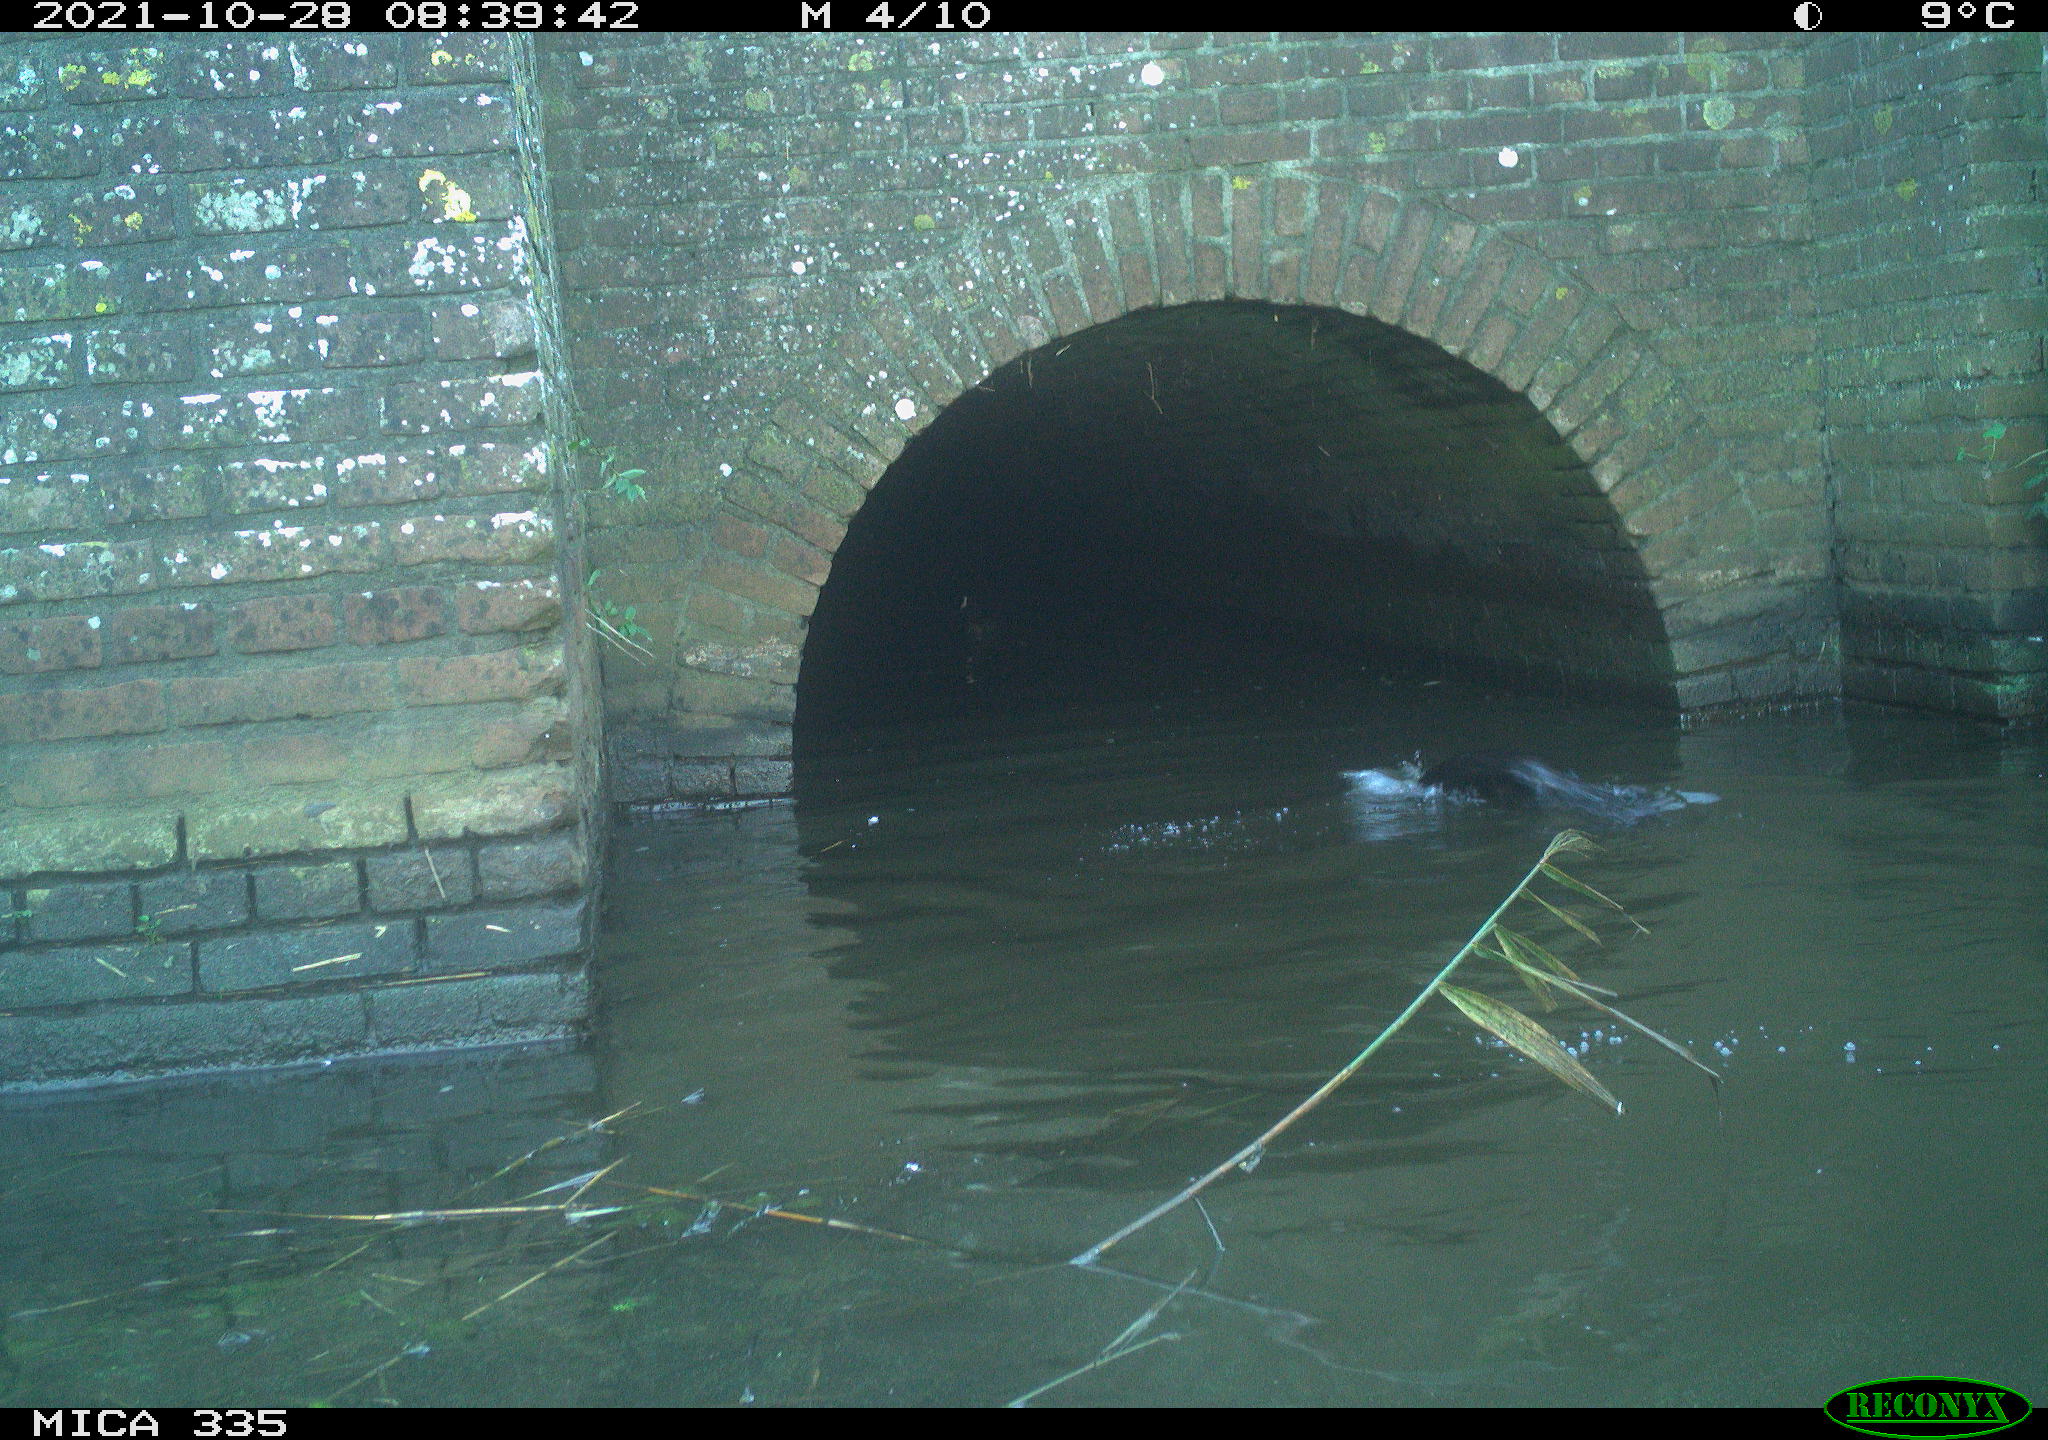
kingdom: Animalia
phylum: Chordata
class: Aves
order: Suliformes
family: Phalacrocoracidae
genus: Phalacrocorax
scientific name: Phalacrocorax carbo
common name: Great cormorant
